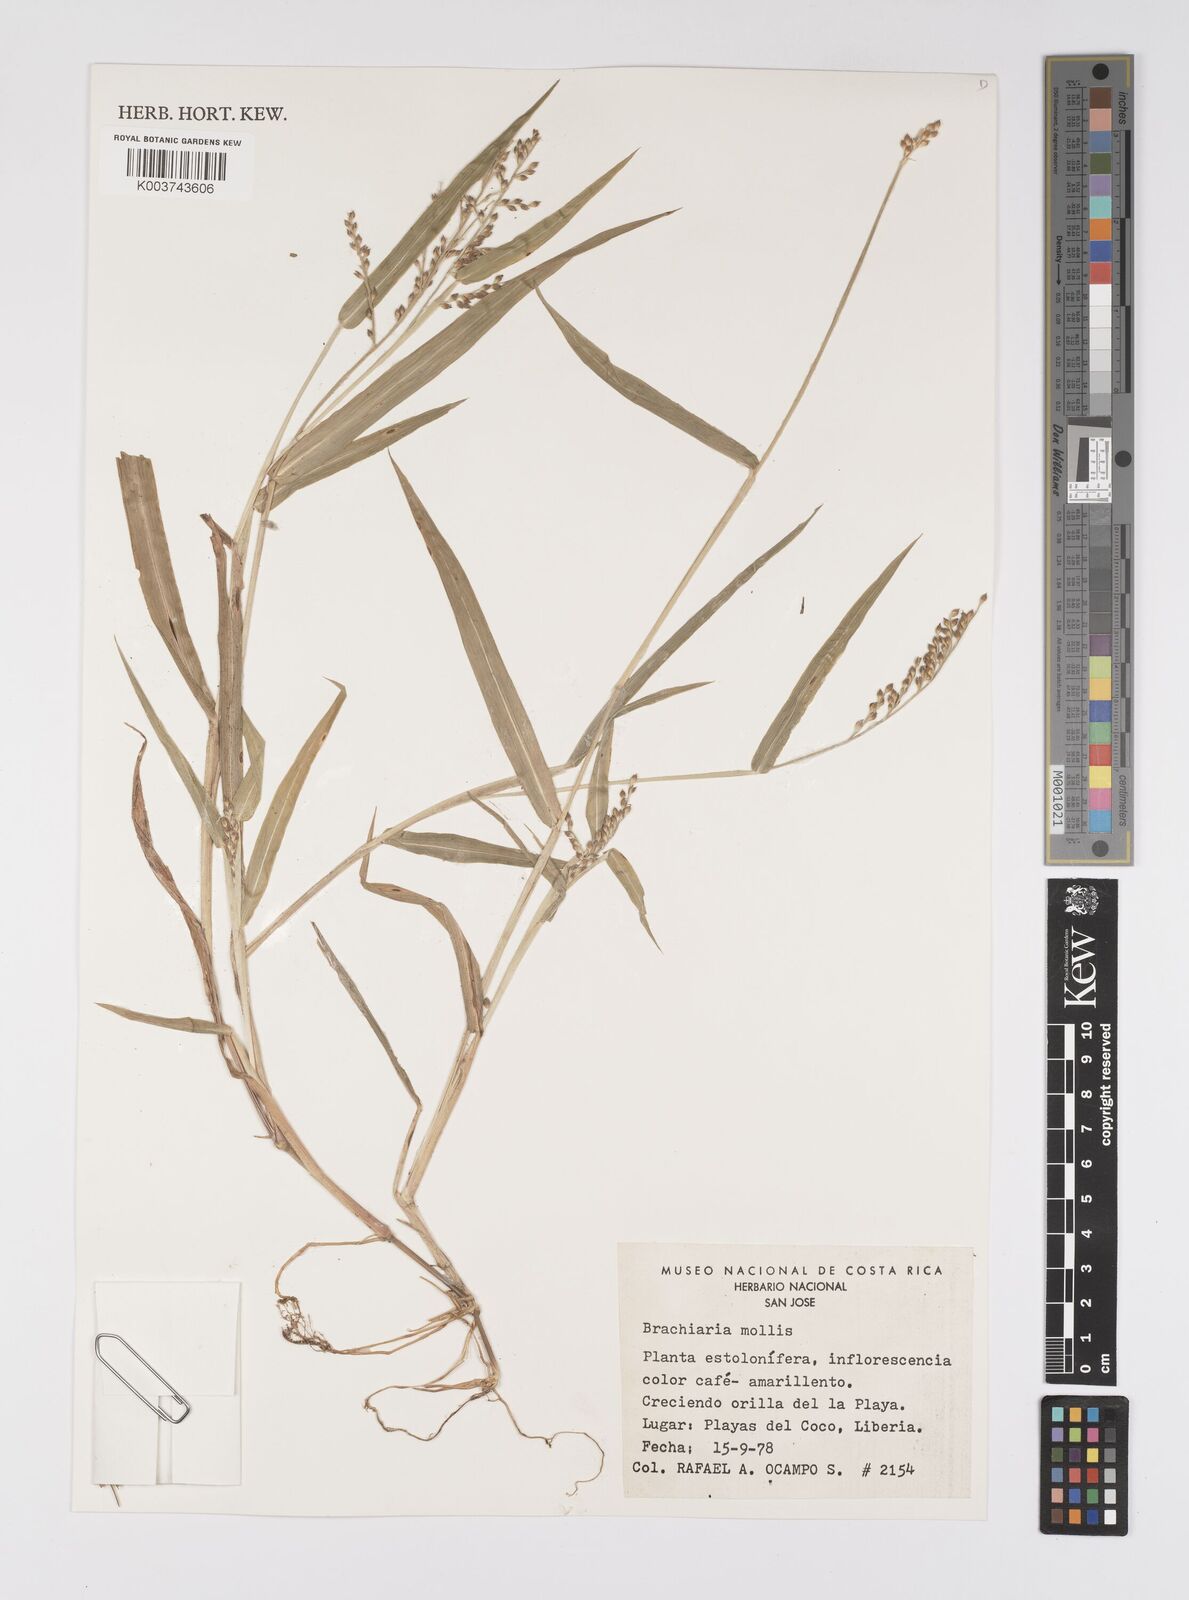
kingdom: Plantae
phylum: Tracheophyta
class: Liliopsida
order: Poales
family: Poaceae
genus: Urochloa
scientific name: Urochloa mollis
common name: Grass
